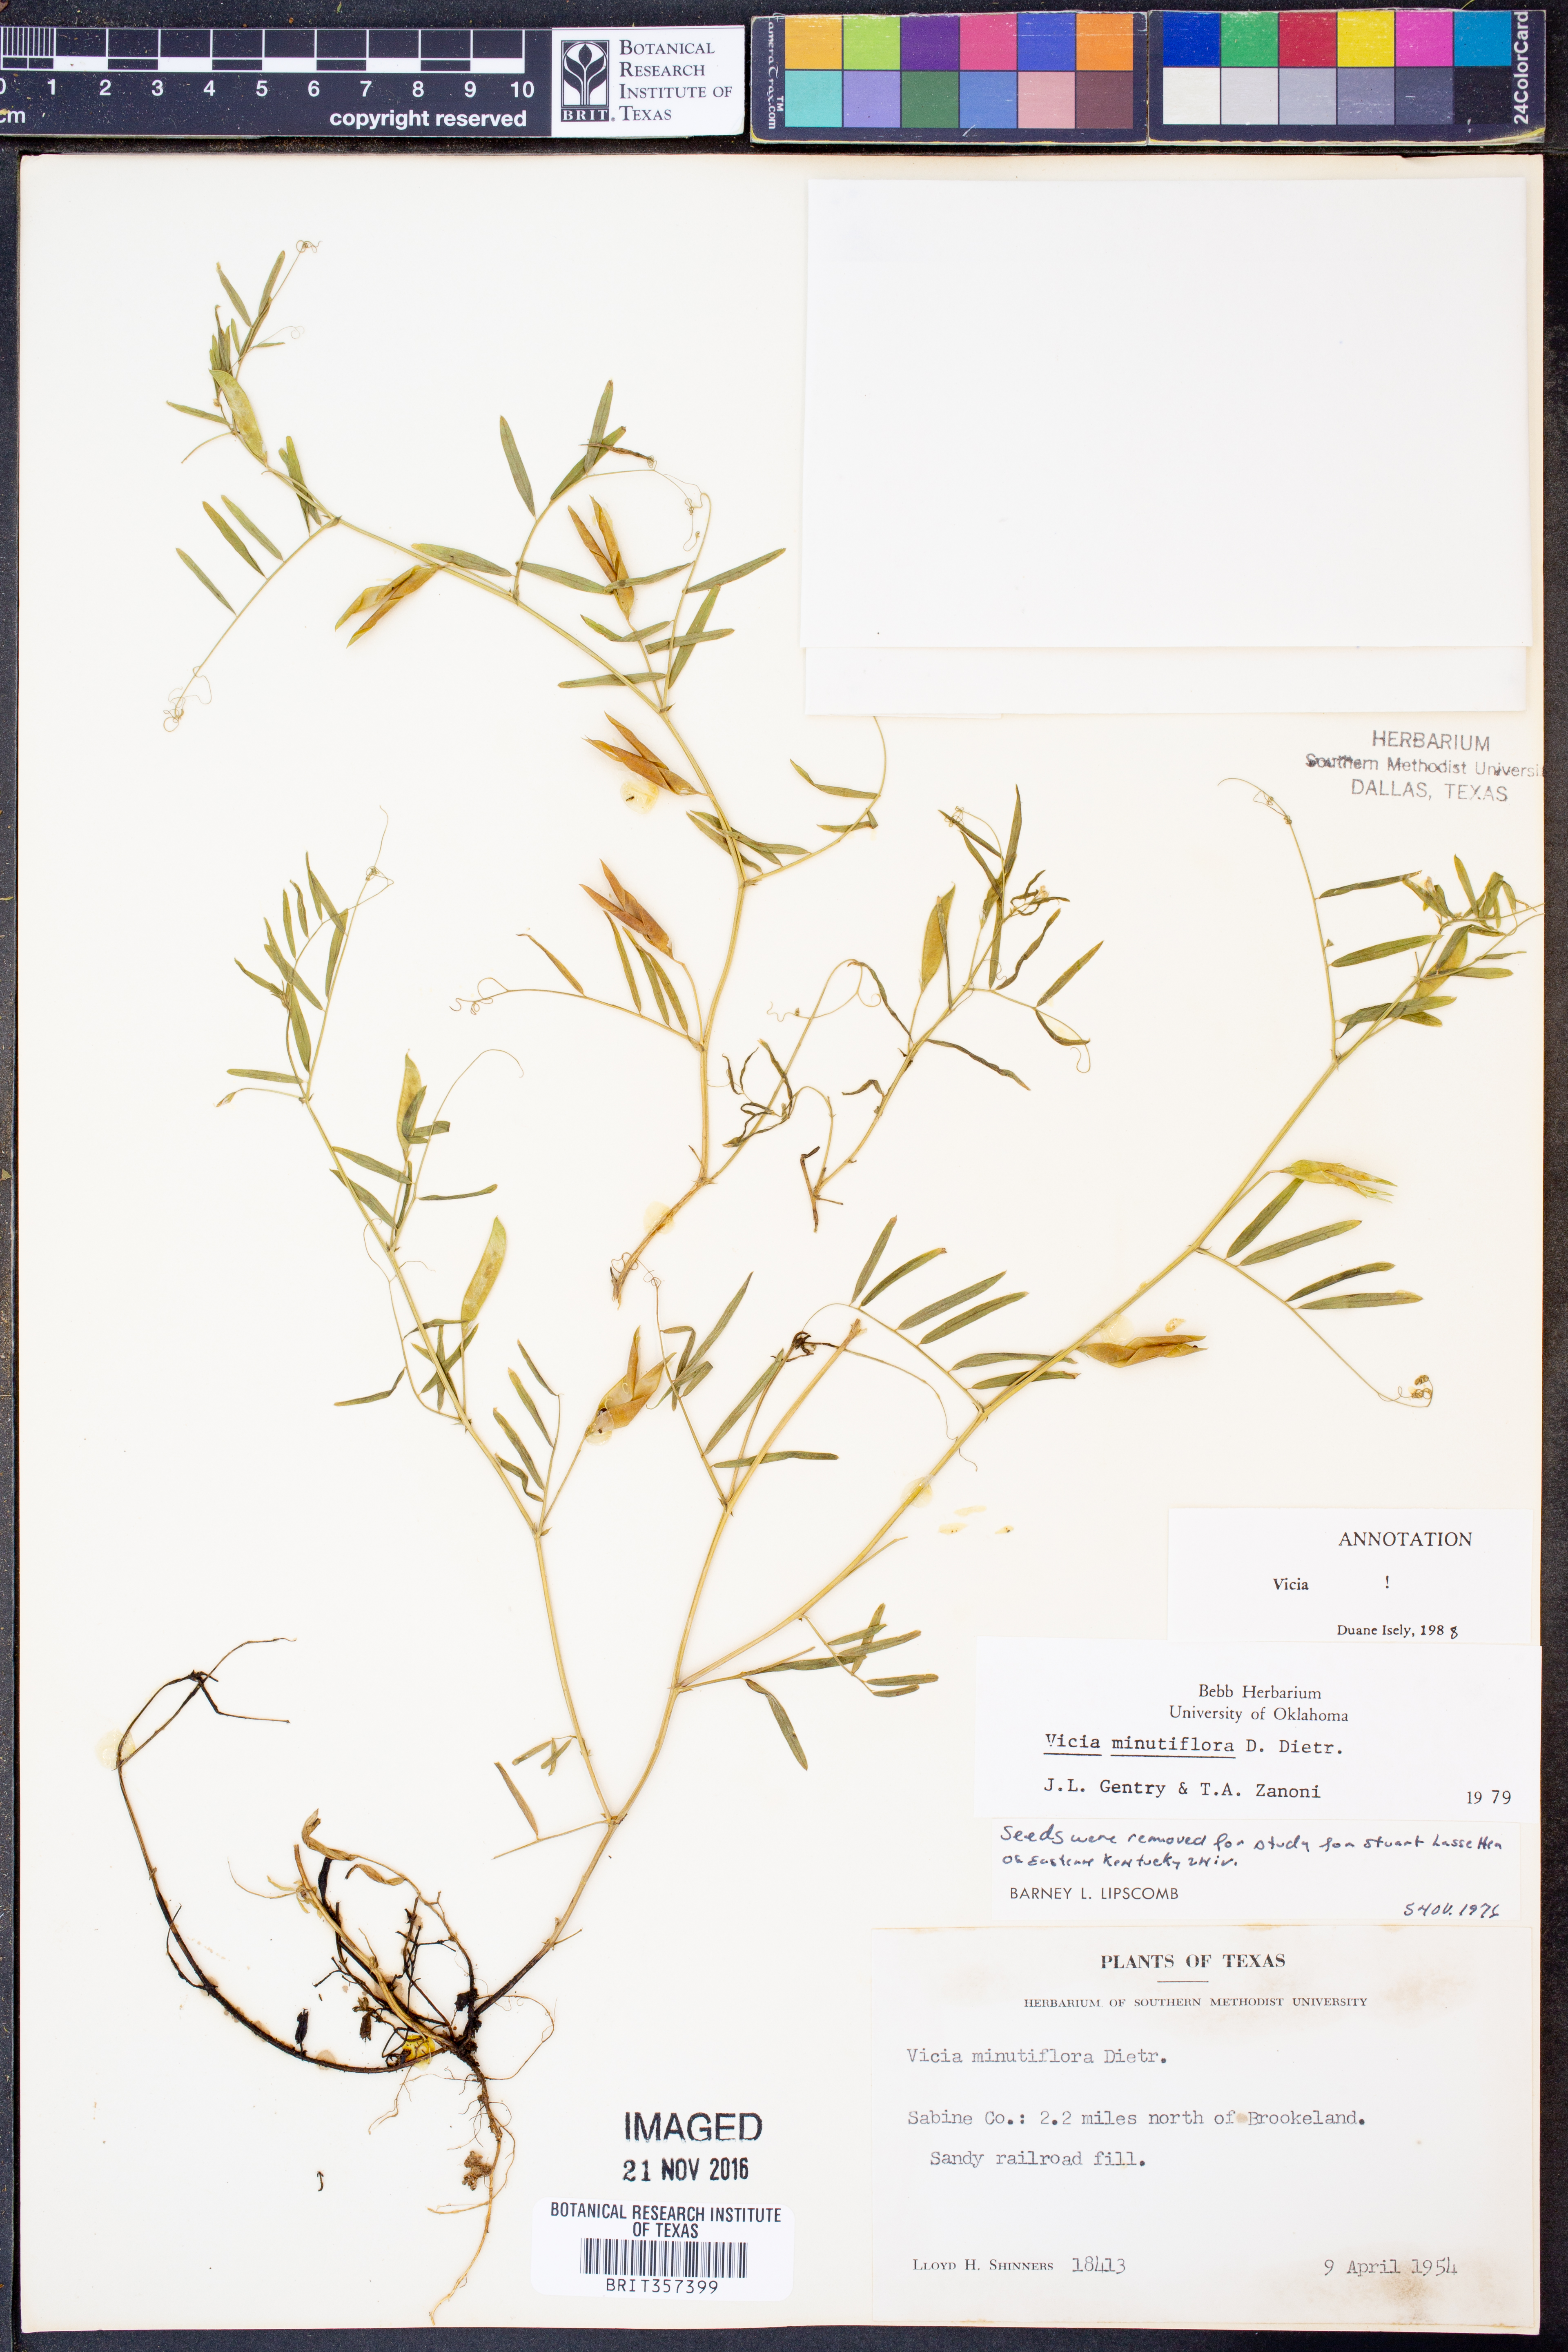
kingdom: Plantae
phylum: Tracheophyta
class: Magnoliopsida
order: Fabales
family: Fabaceae
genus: Vicia
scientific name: Vicia
